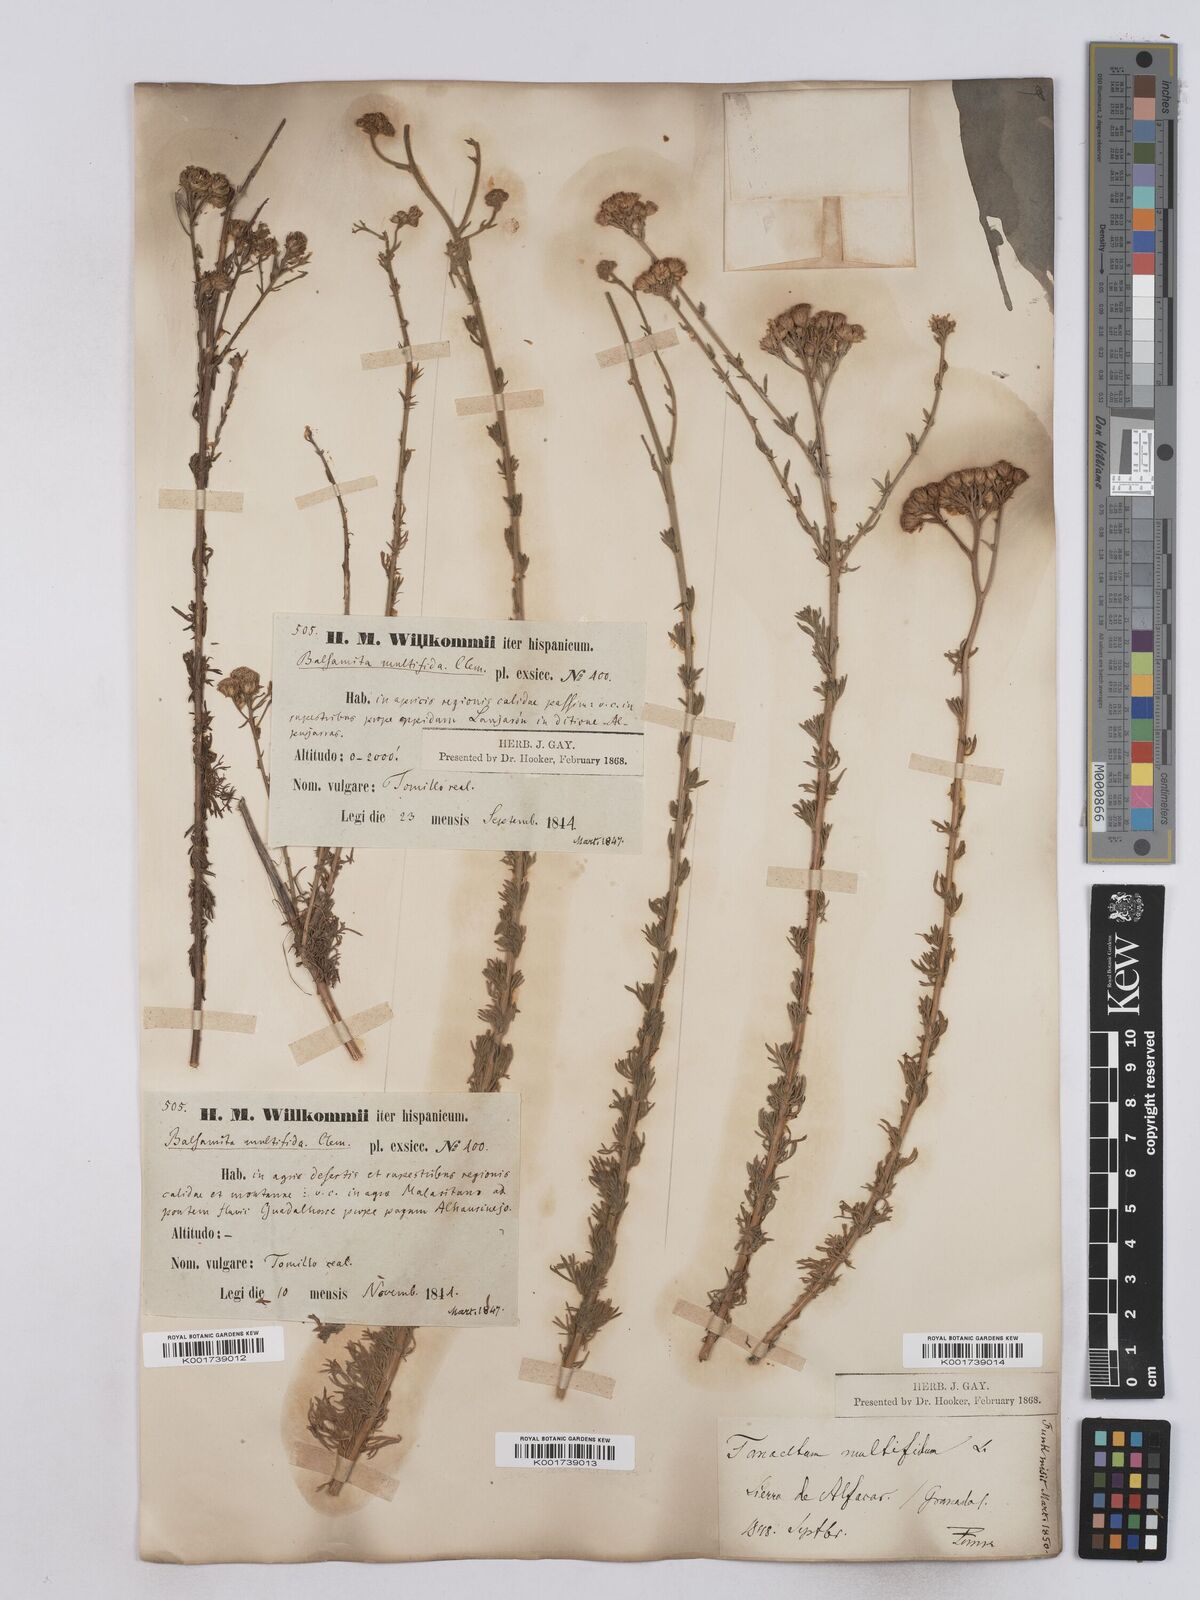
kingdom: Plantae
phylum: Tracheophyta
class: Magnoliopsida
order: Asterales
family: Asteraceae
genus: Vogtia
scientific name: Vogtia annua
